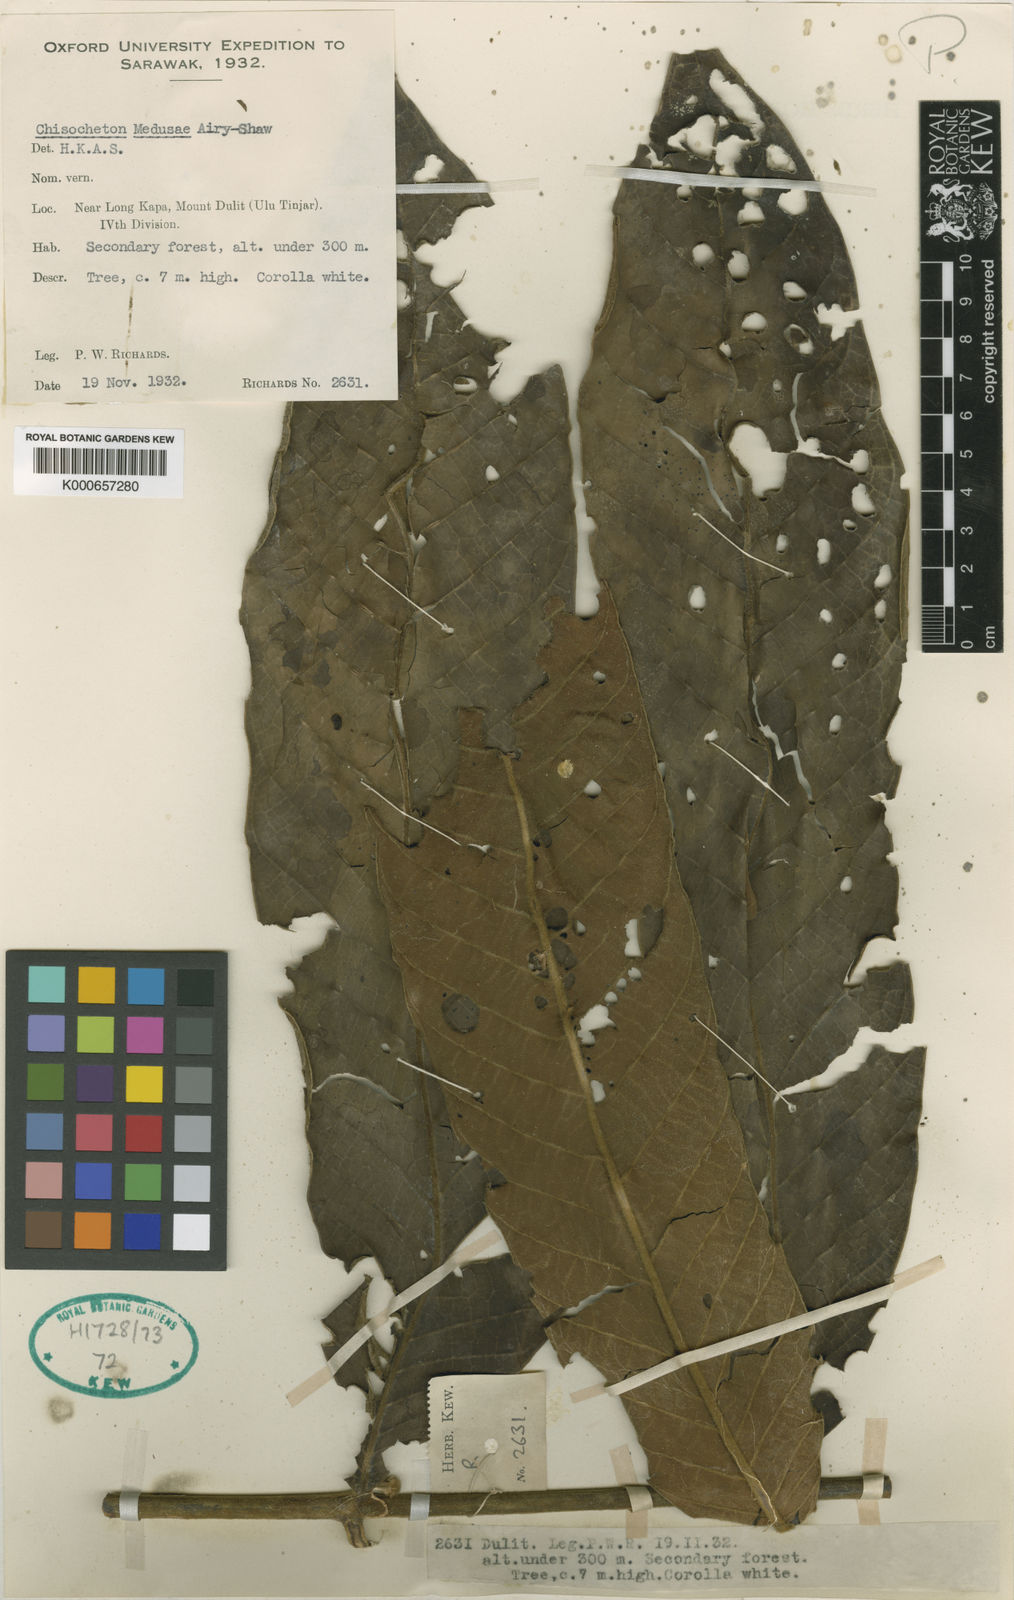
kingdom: Plantae
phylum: Tracheophyta
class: Magnoliopsida
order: Sapindales
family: Meliaceae
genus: Chisocheton
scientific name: Chisocheton medusae
